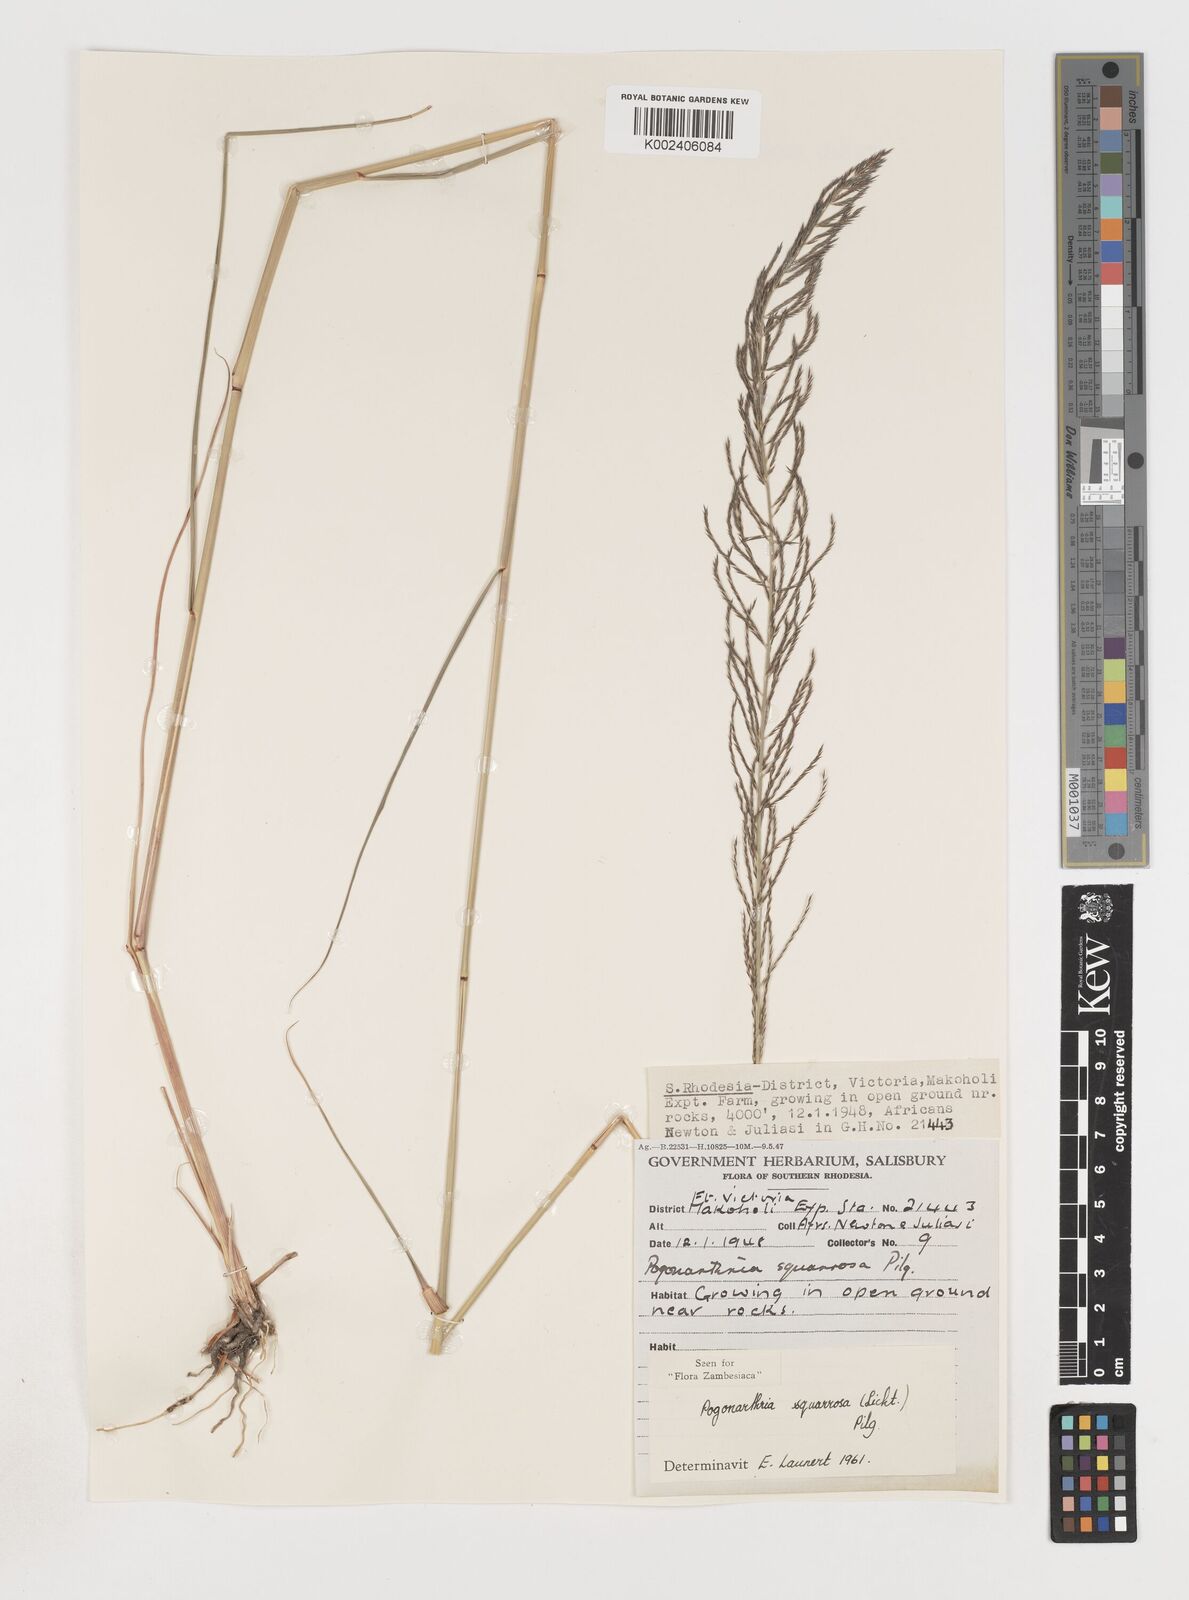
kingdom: Plantae
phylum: Tracheophyta
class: Liliopsida
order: Poales
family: Poaceae
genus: Pogonarthria
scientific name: Pogonarthria squarrosa
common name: Grass
